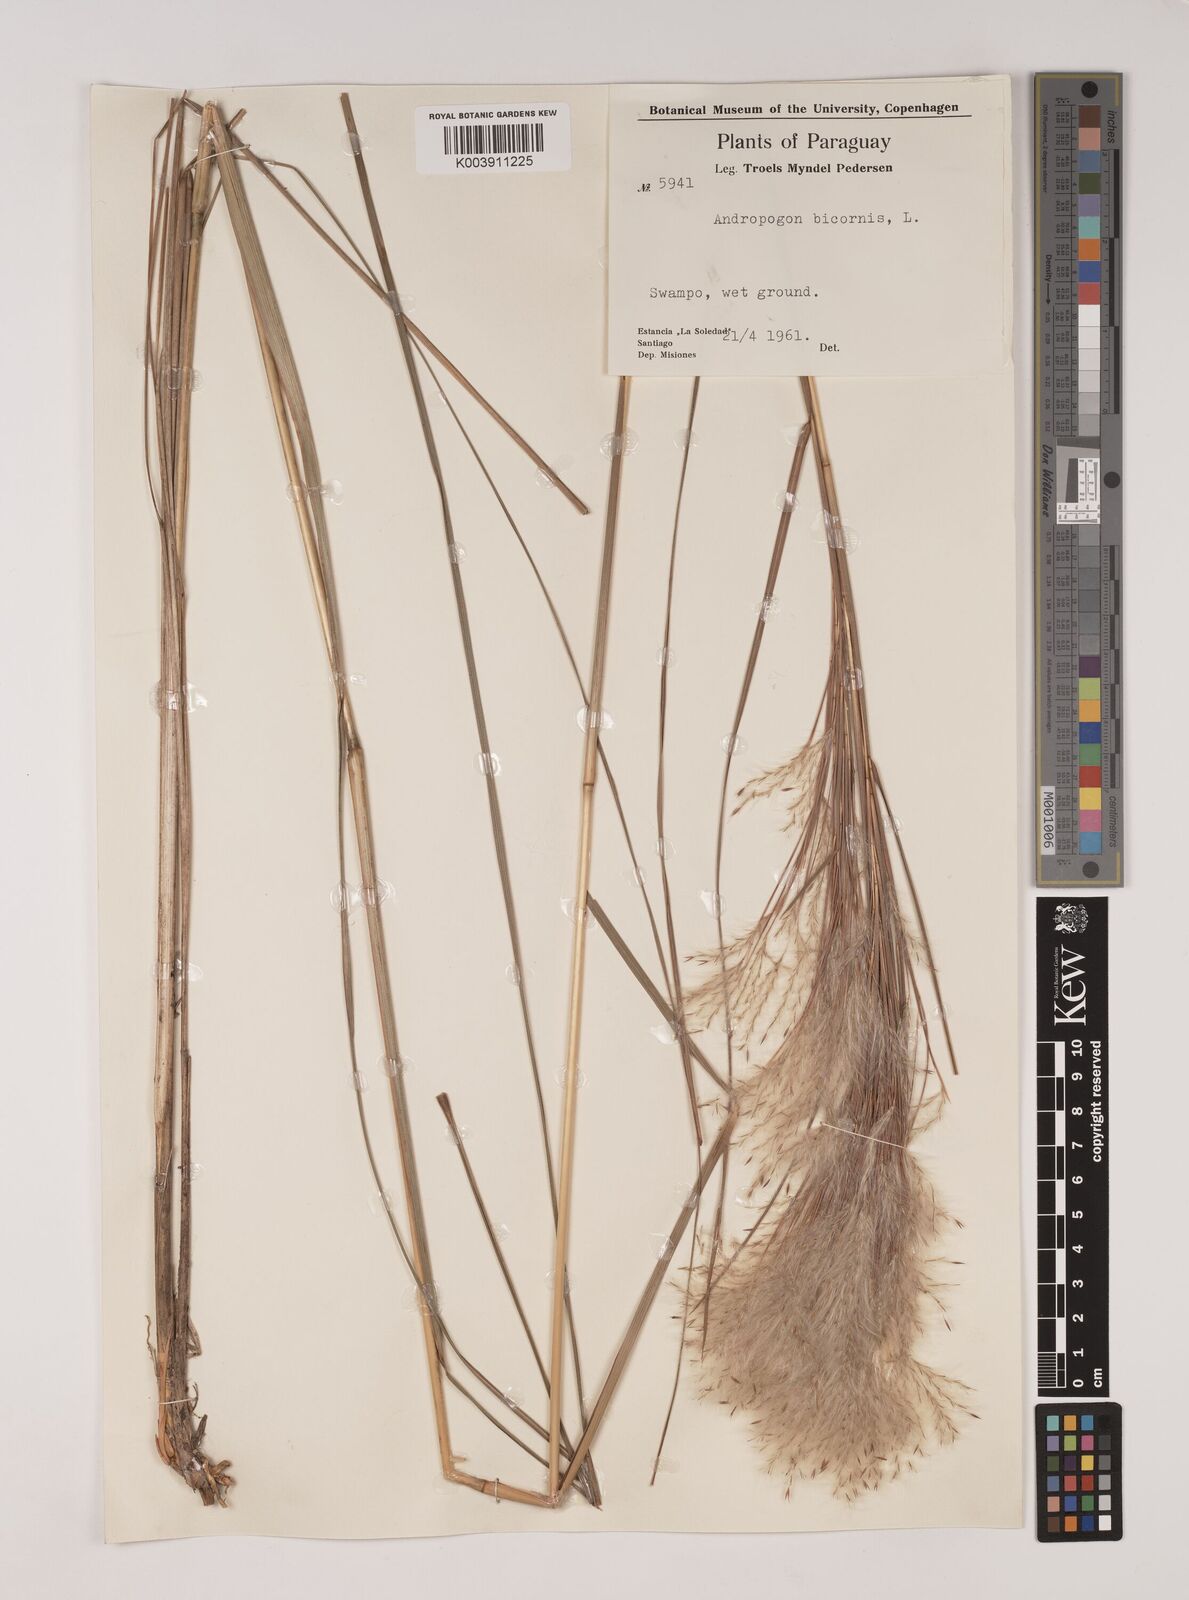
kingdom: Plantae
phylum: Tracheophyta
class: Liliopsida
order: Poales
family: Poaceae
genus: Andropogon
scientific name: Andropogon bicornis
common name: West indian foxtail grass
